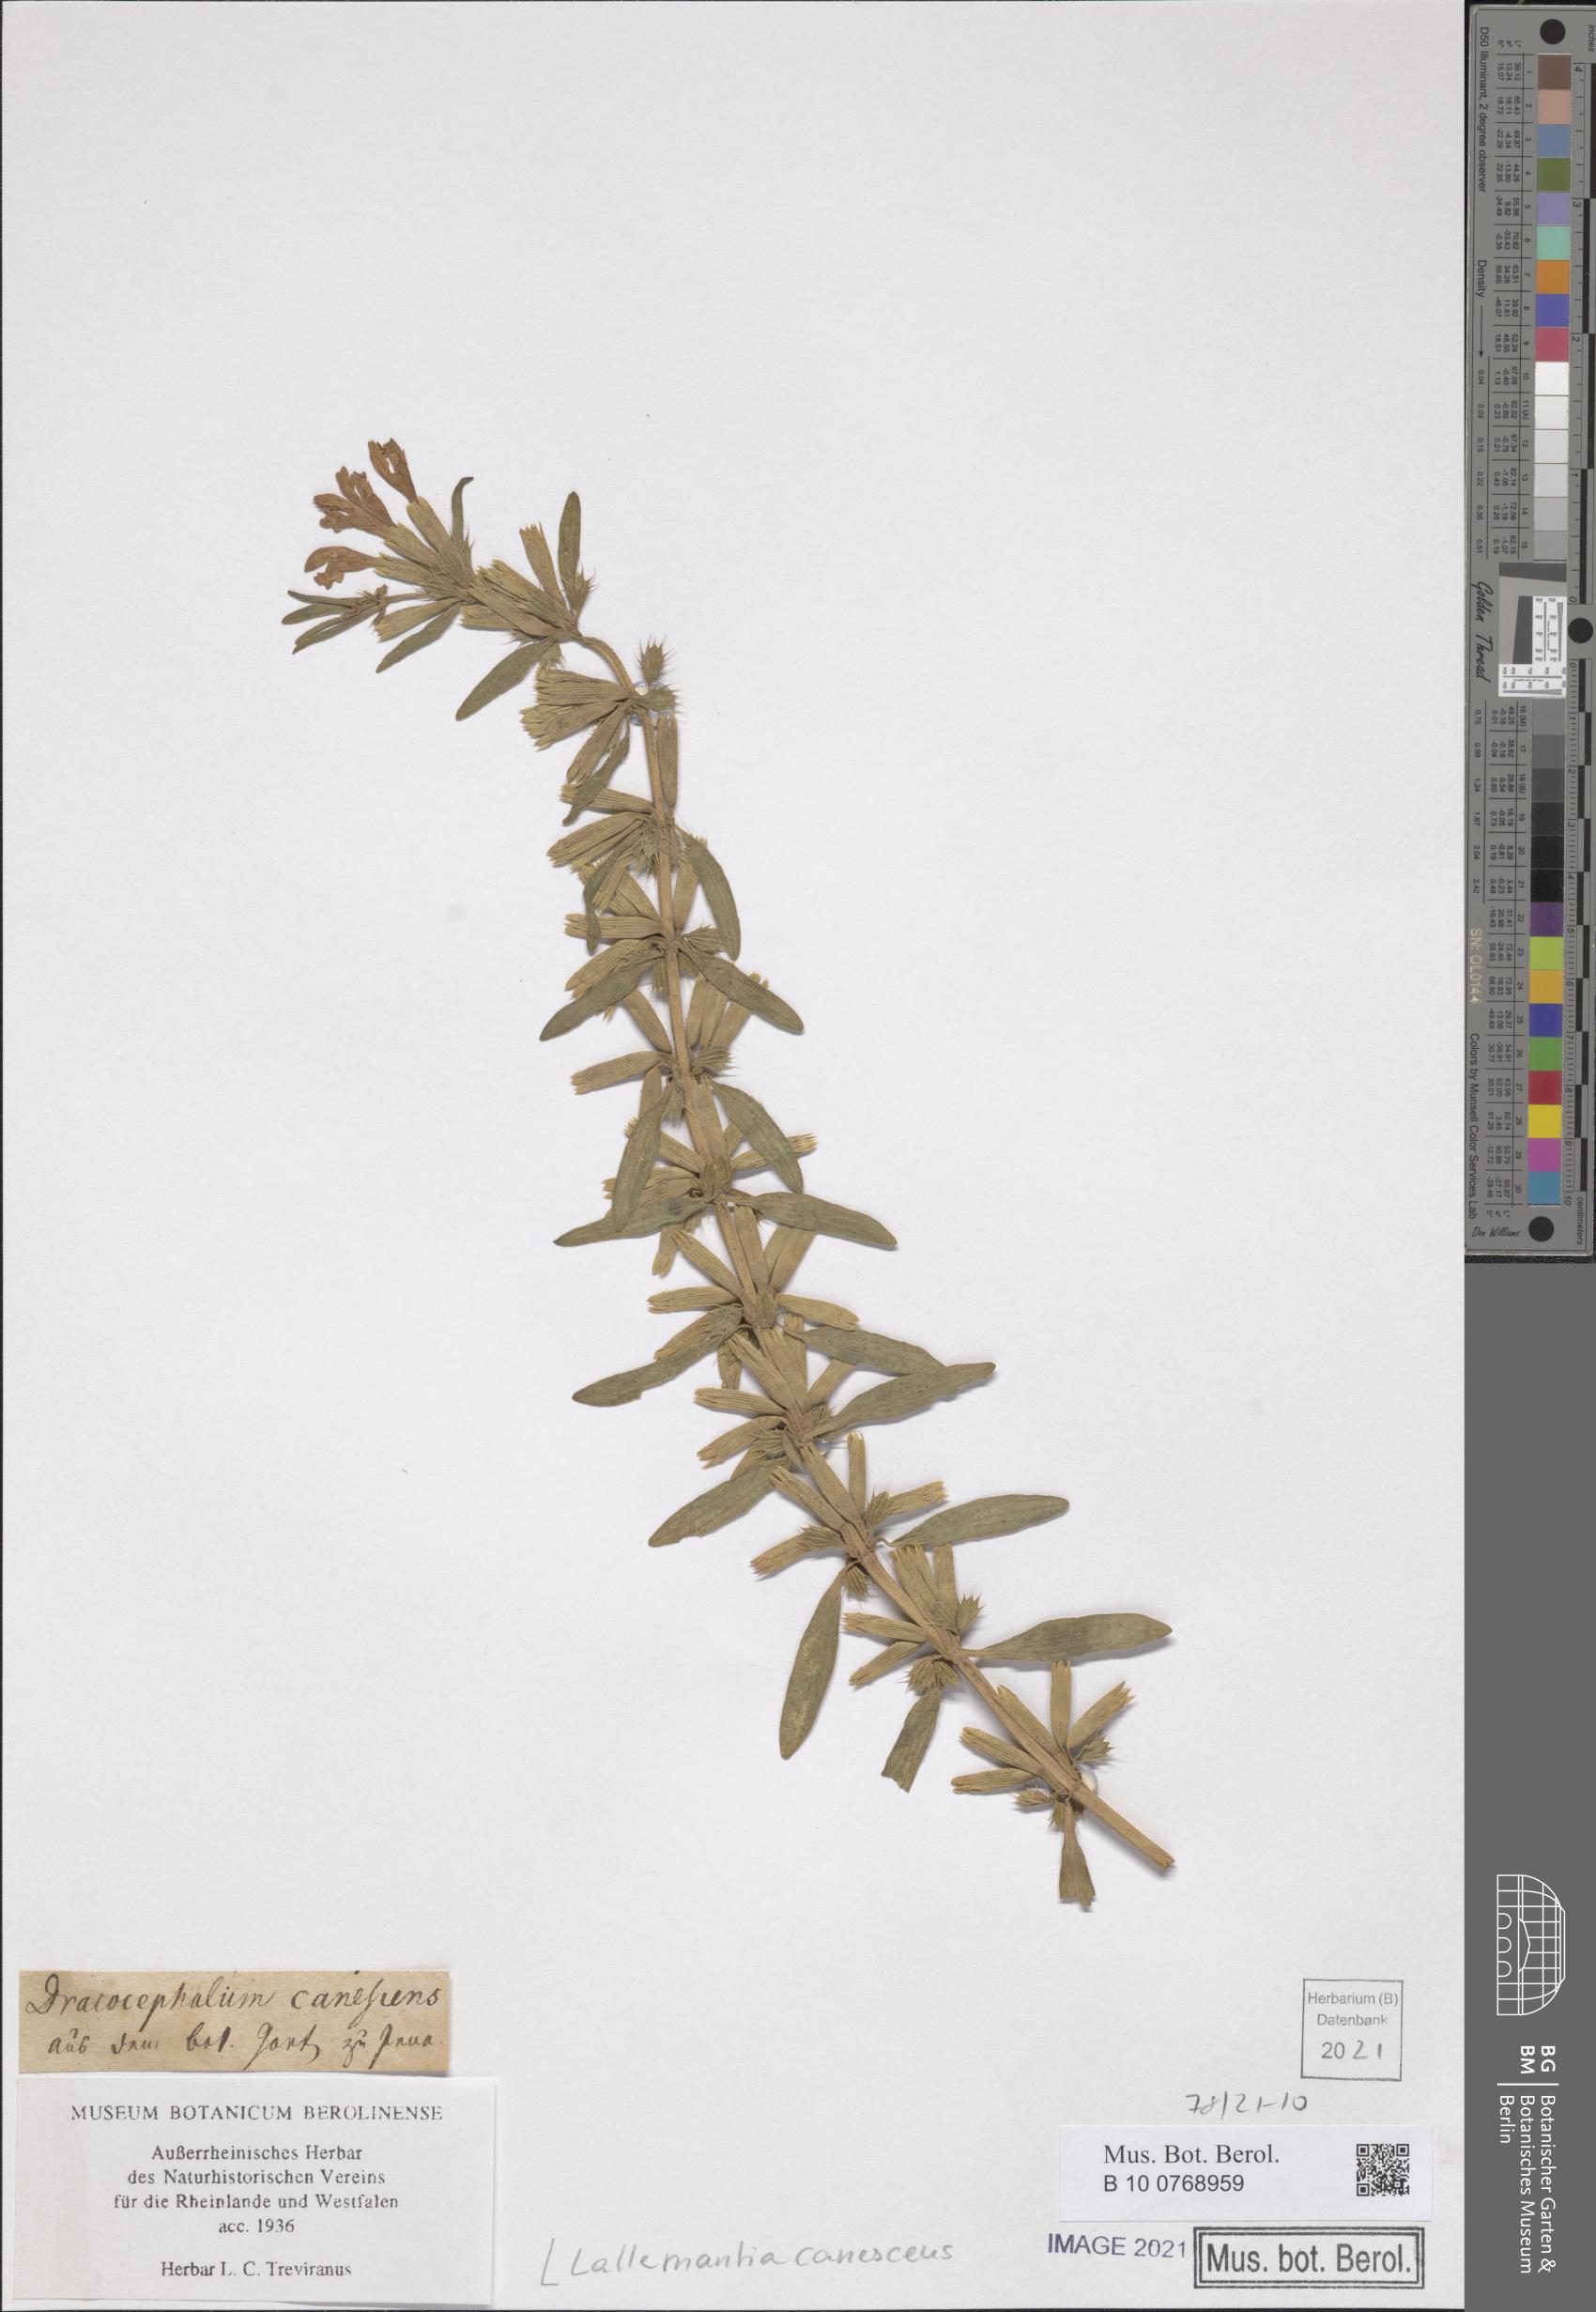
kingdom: Plantae
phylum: Tracheophyta
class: Magnoliopsida
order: Lamiales
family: Lamiaceae
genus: Lallemantia
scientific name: Lallemantia canescens
